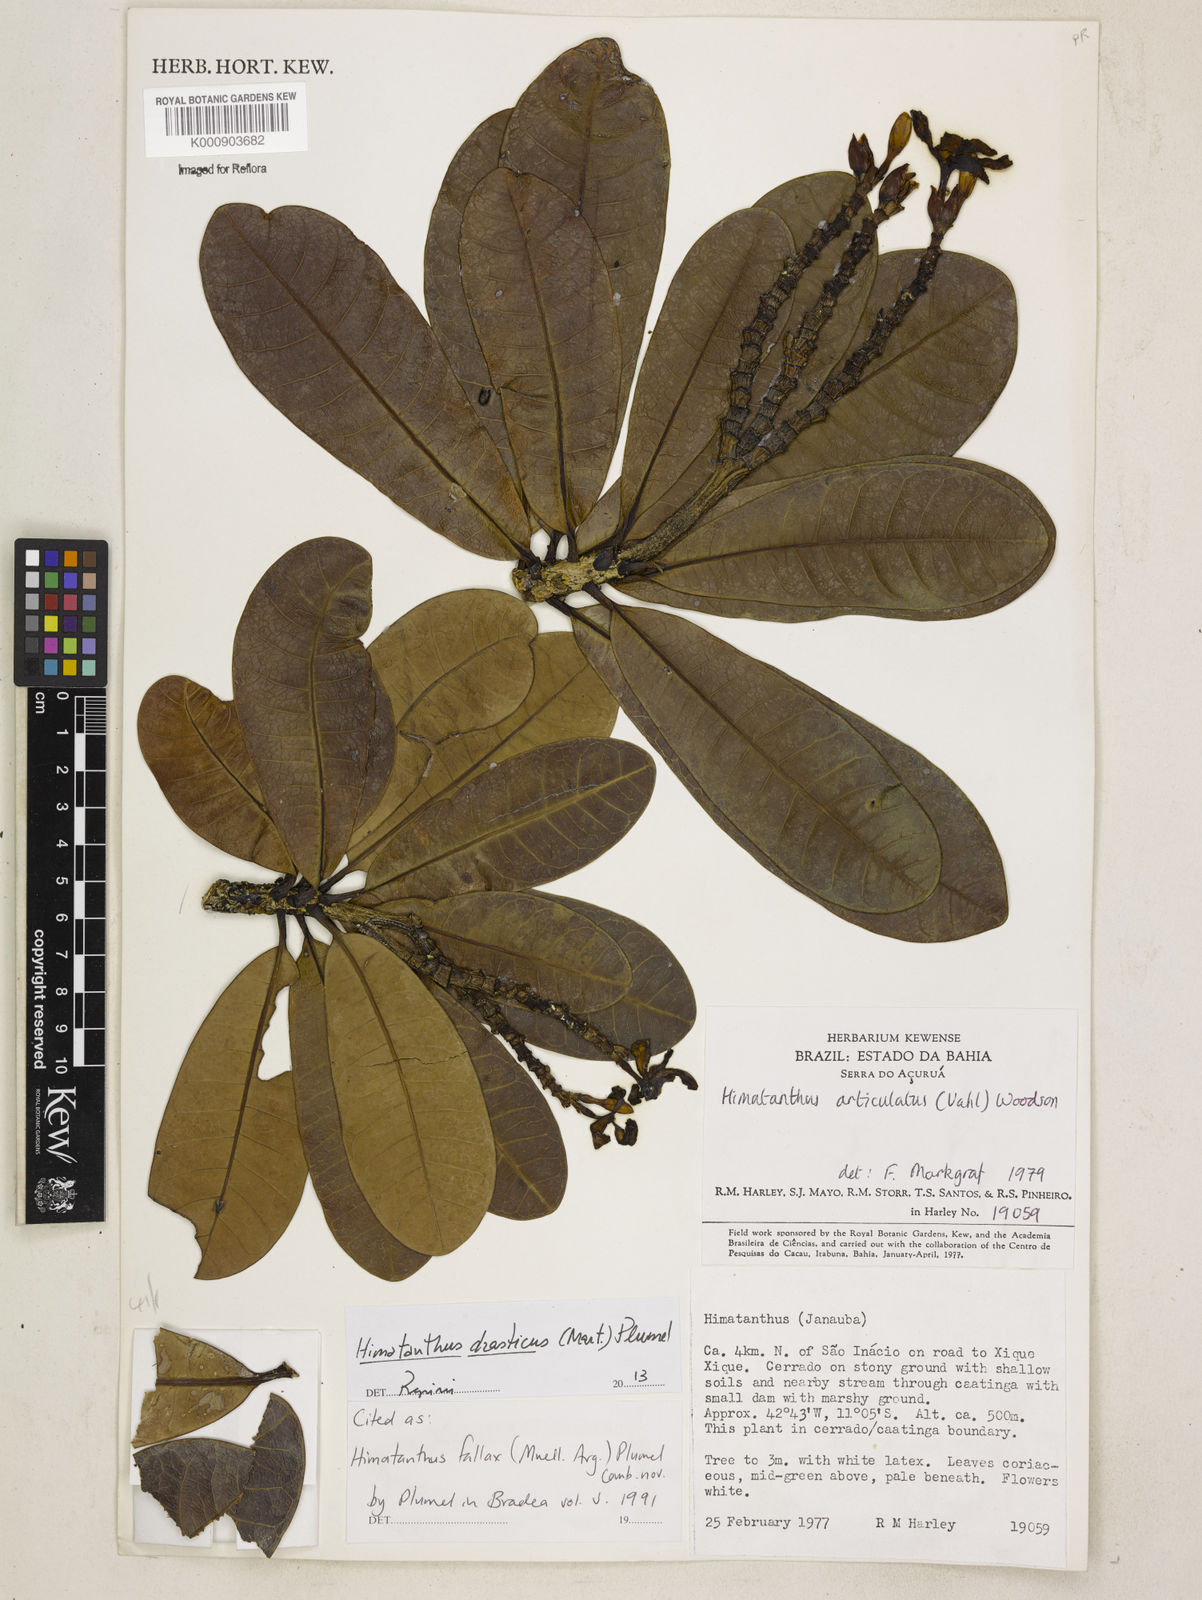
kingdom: Plantae
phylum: Tracheophyta
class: Magnoliopsida
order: Gentianales
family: Apocynaceae
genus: Himatanthus
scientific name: Himatanthus
